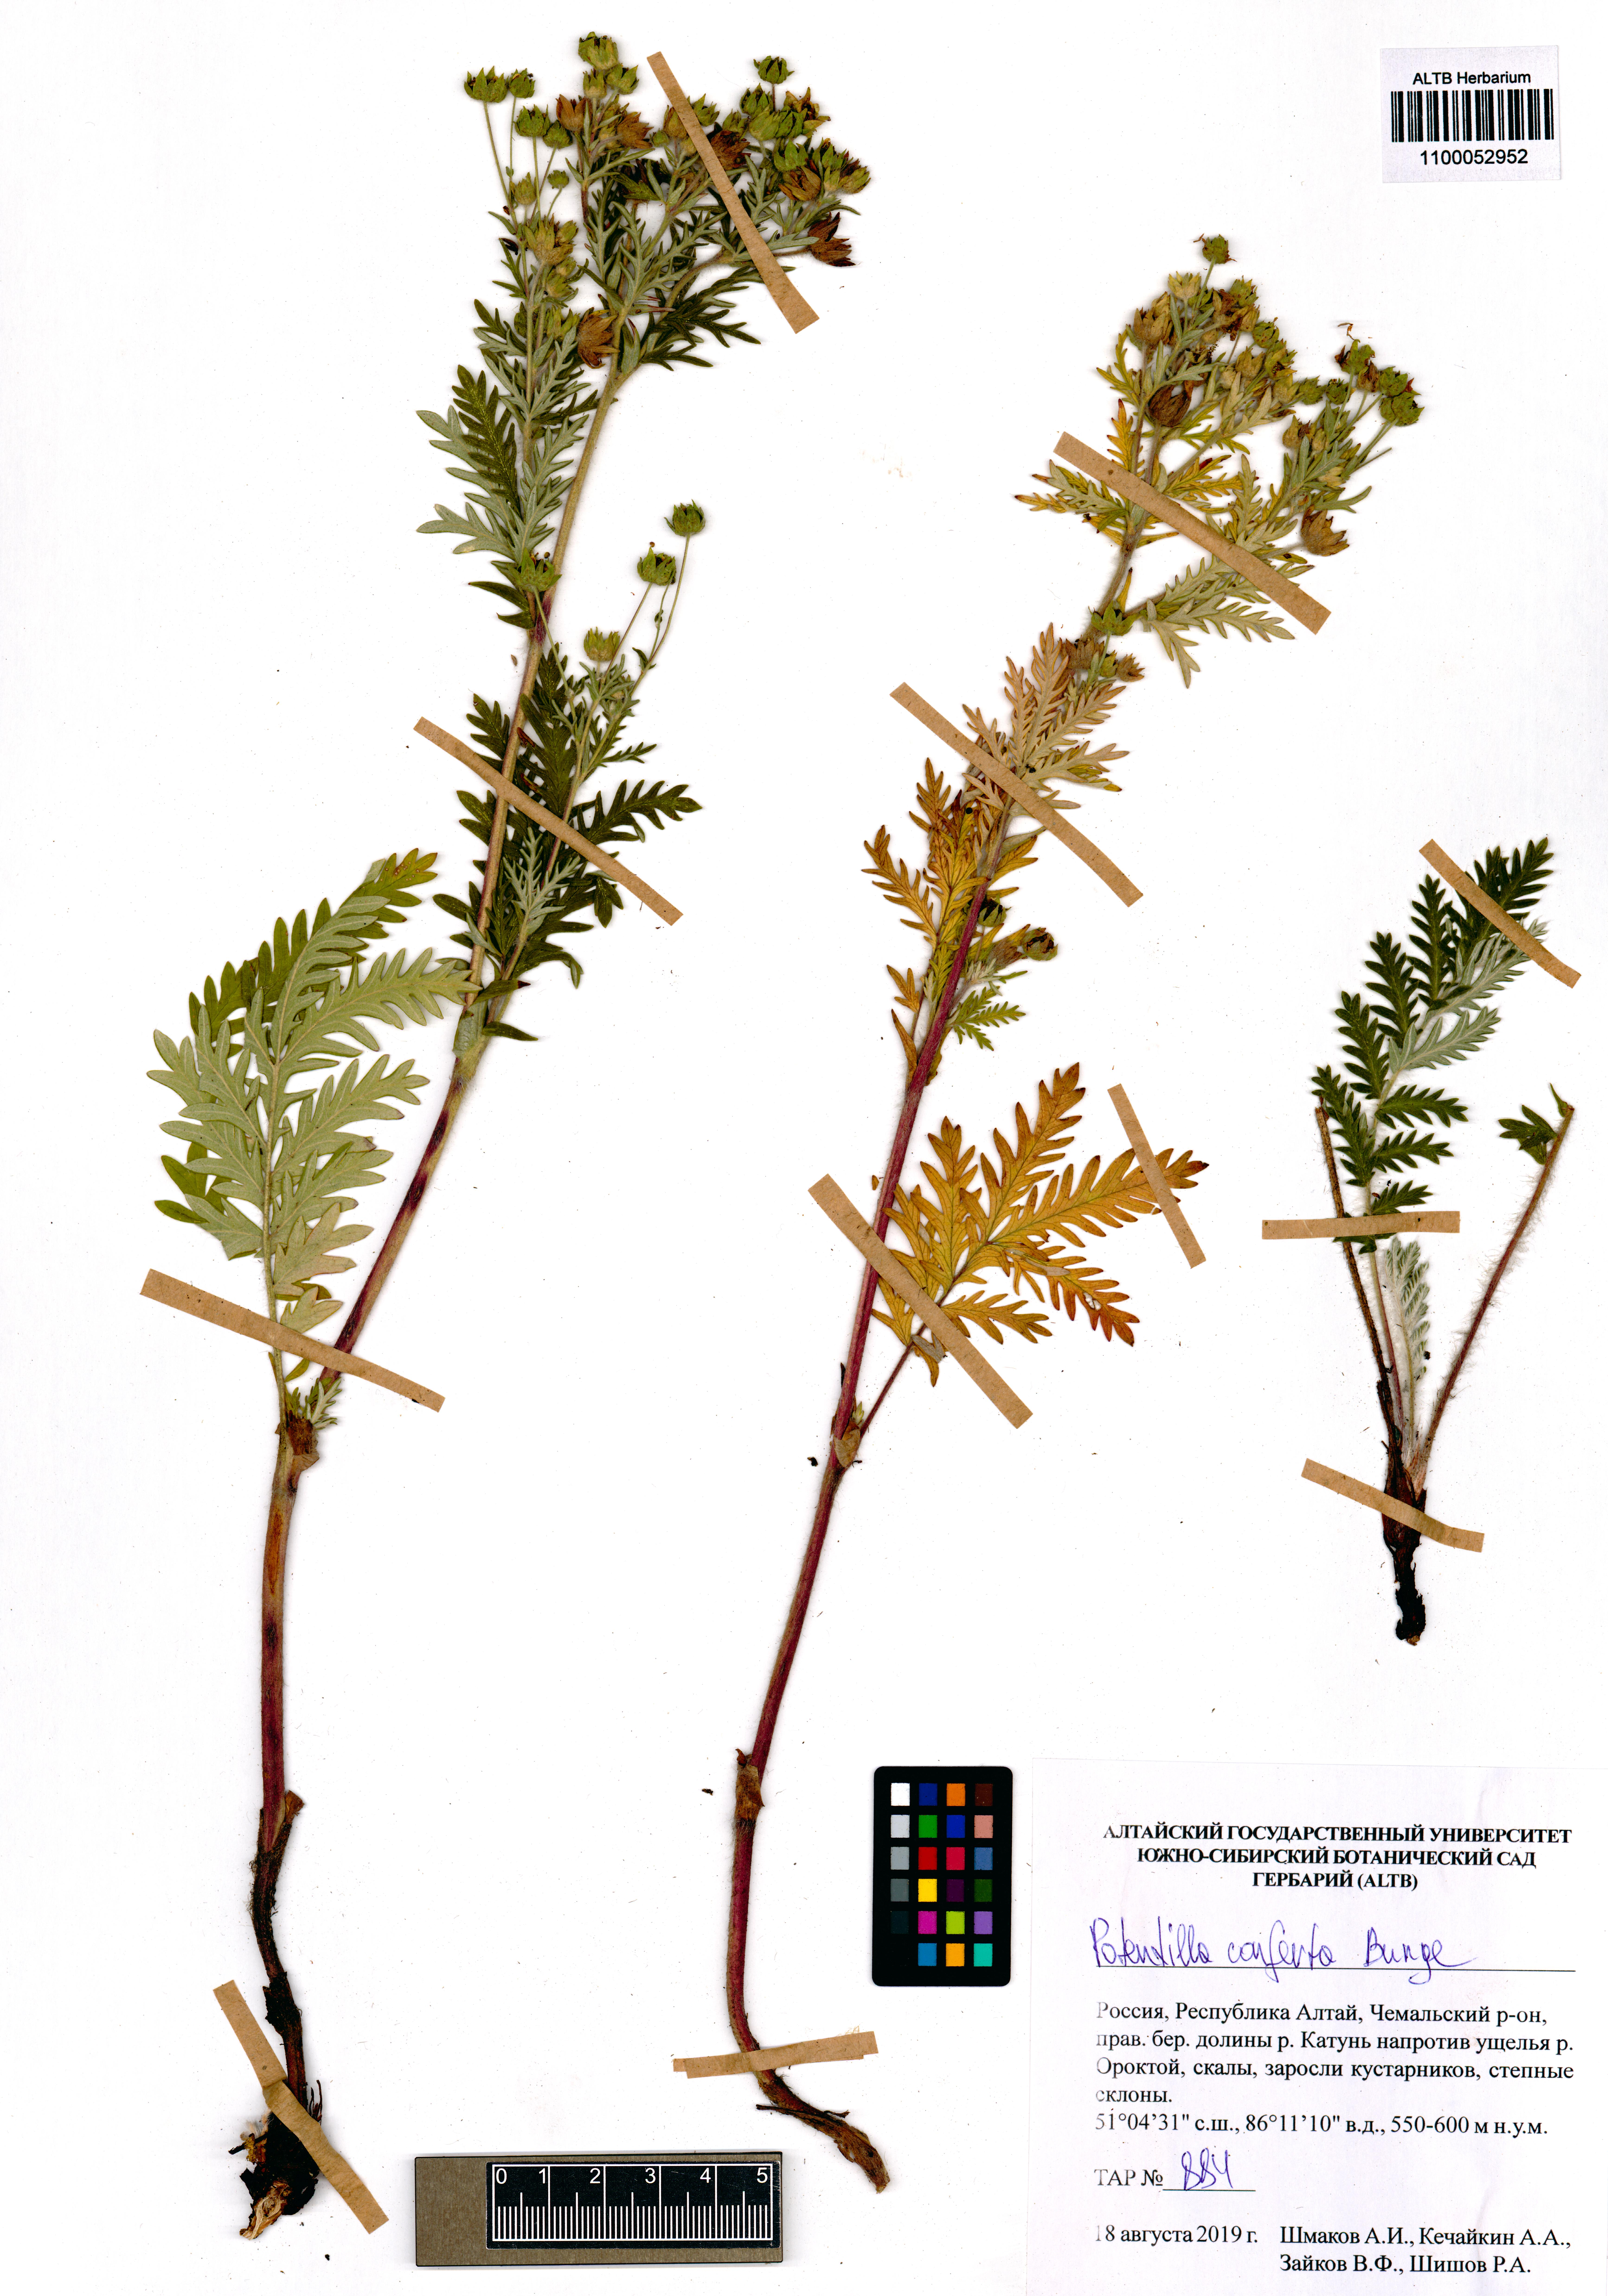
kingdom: Plantae
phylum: Tracheophyta
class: Magnoliopsida
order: Rosales
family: Rosaceae
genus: Potentilla
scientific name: Potentilla conferta
